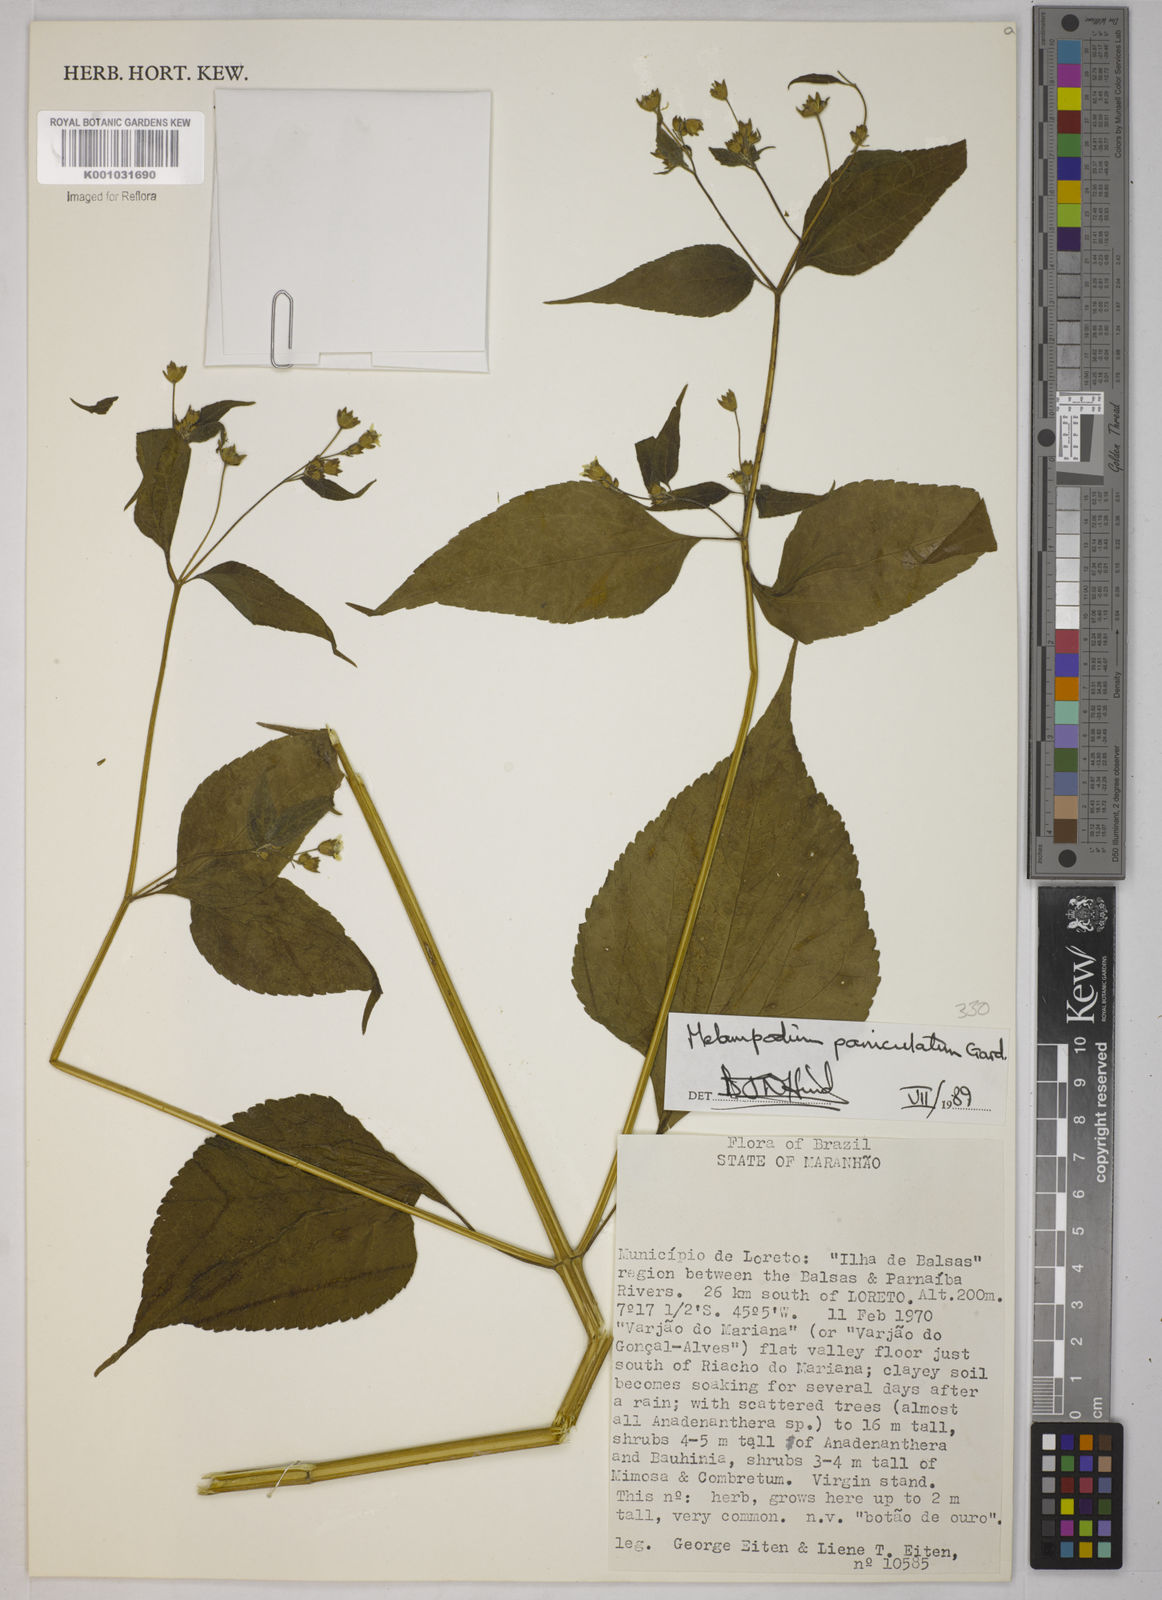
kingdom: Plantae
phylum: Tracheophyta
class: Magnoliopsida
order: Asterales
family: Asteraceae
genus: Melampodium
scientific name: Melampodium paniculatum
